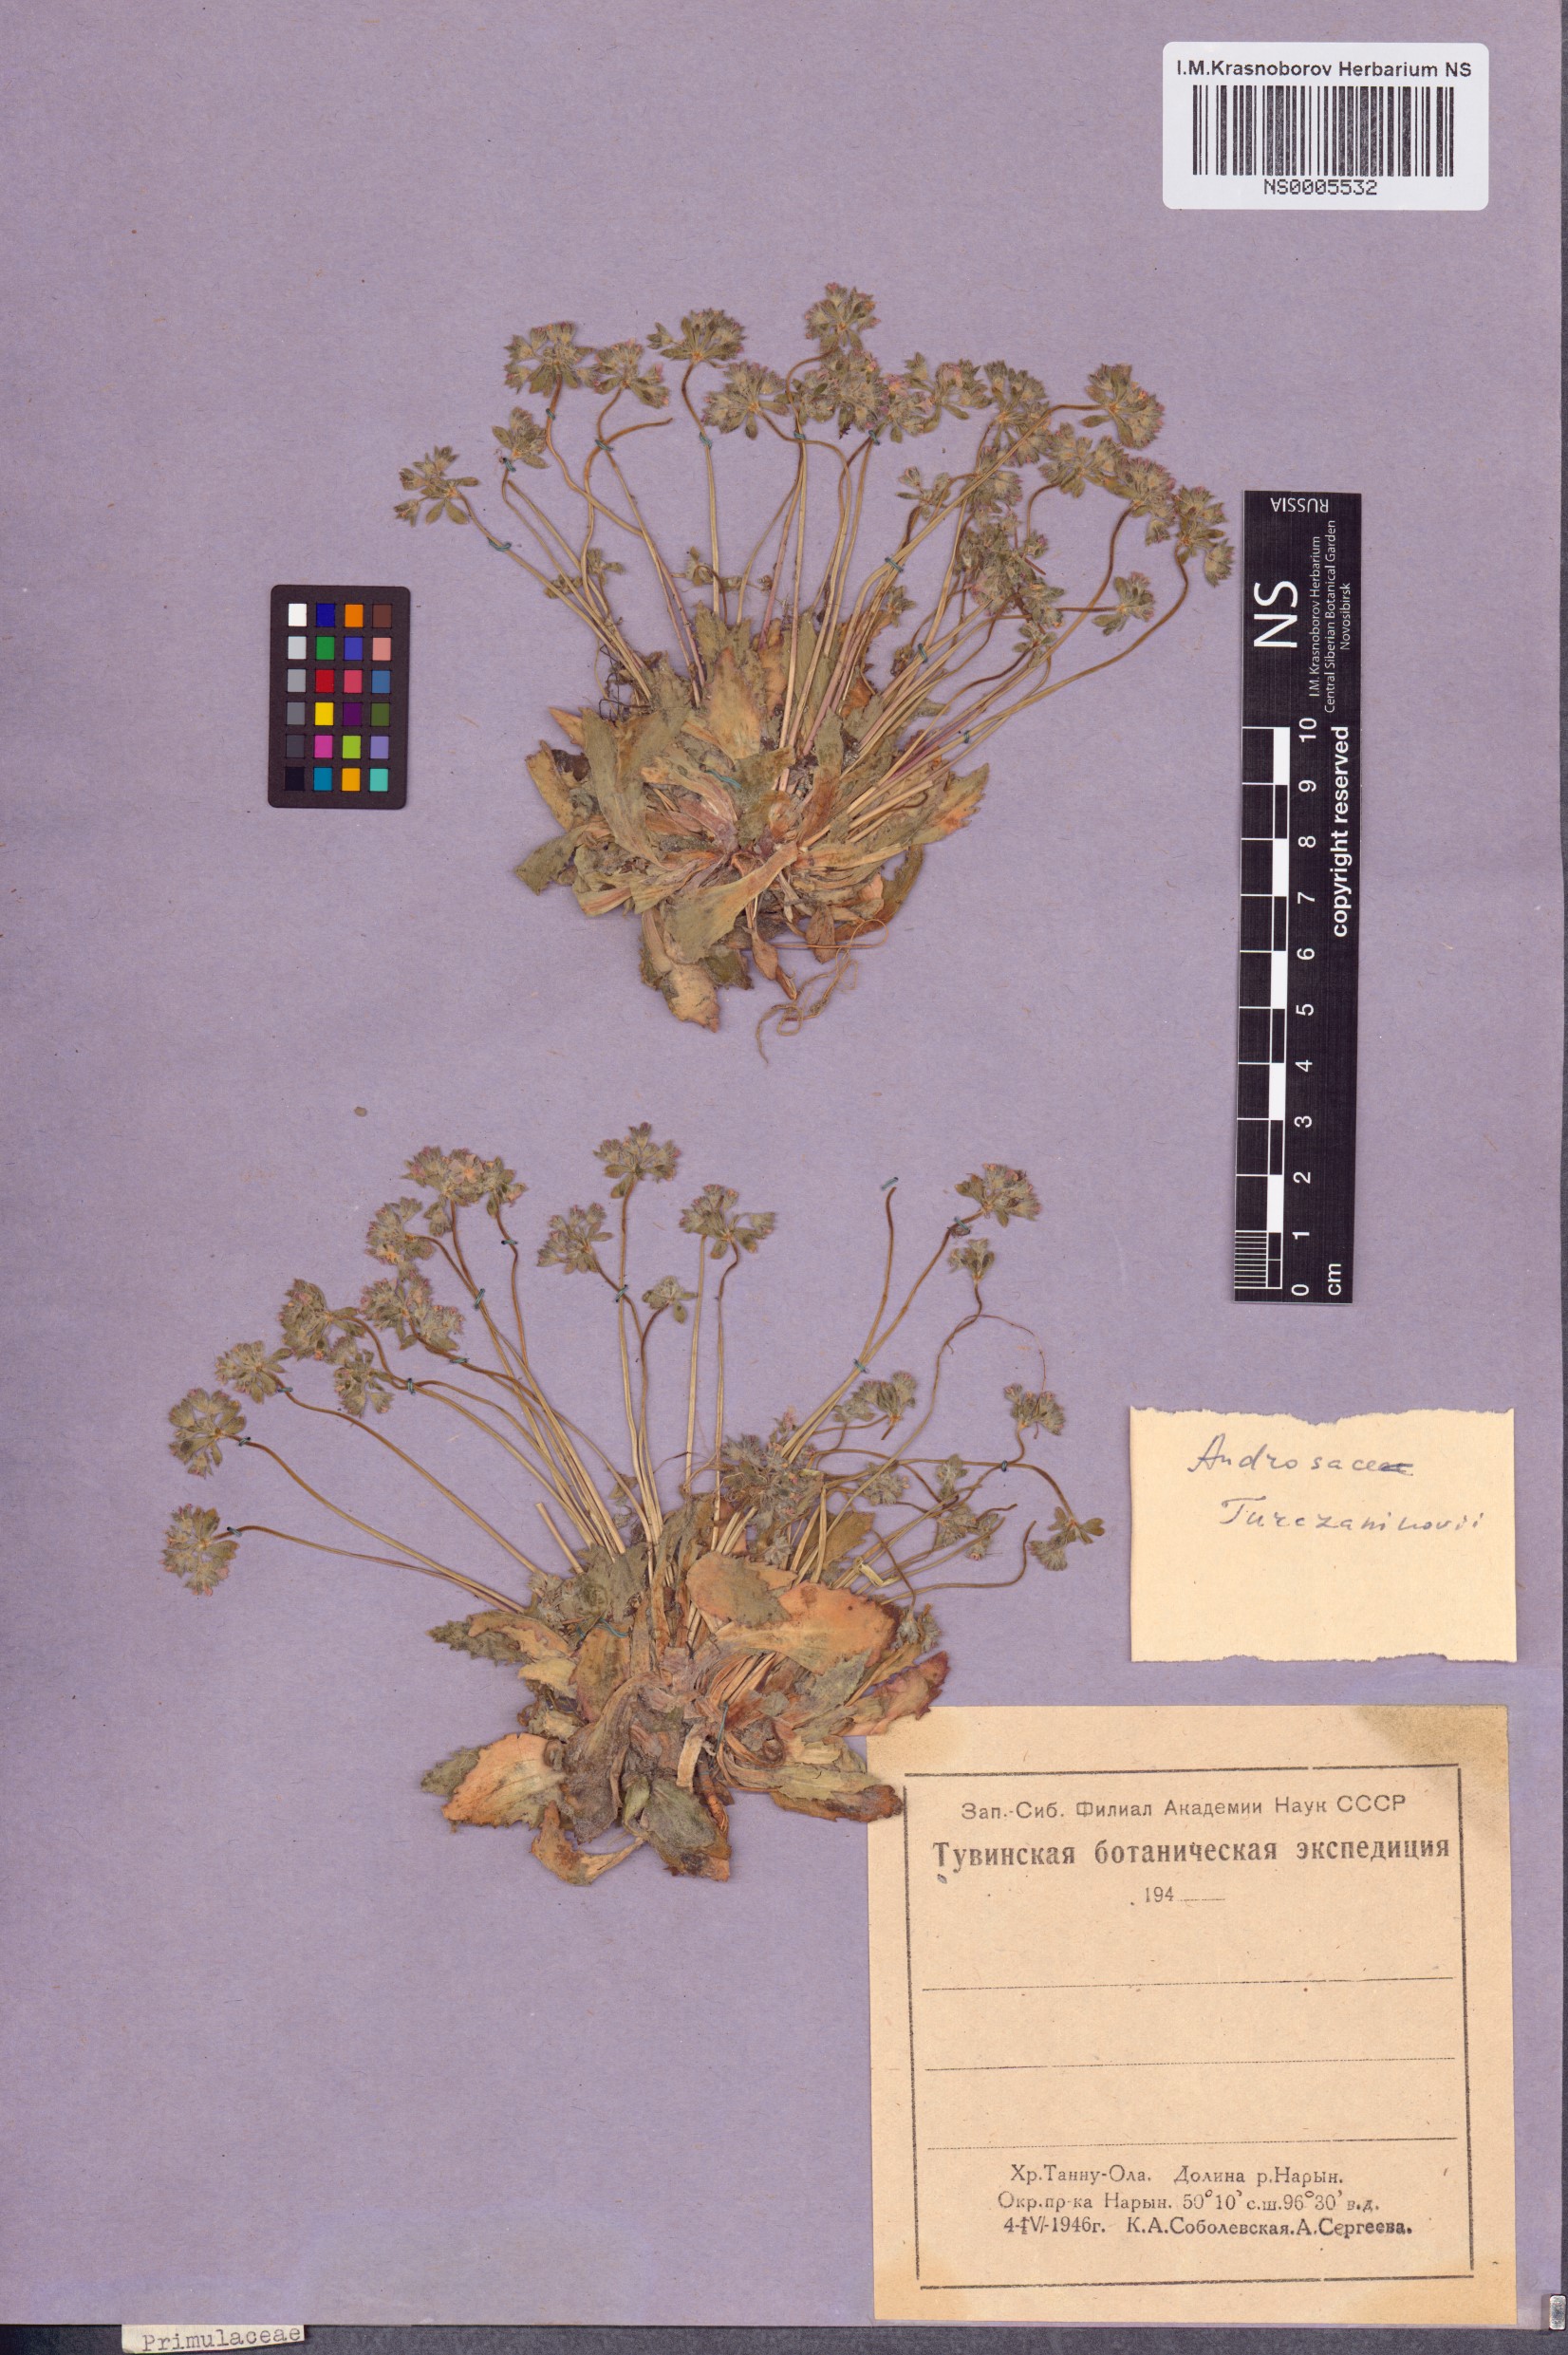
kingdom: Plantae
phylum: Tracheophyta
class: Magnoliopsida
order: Ericales
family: Primulaceae
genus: Androsace
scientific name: Androsace maxima
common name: Annual androsace
